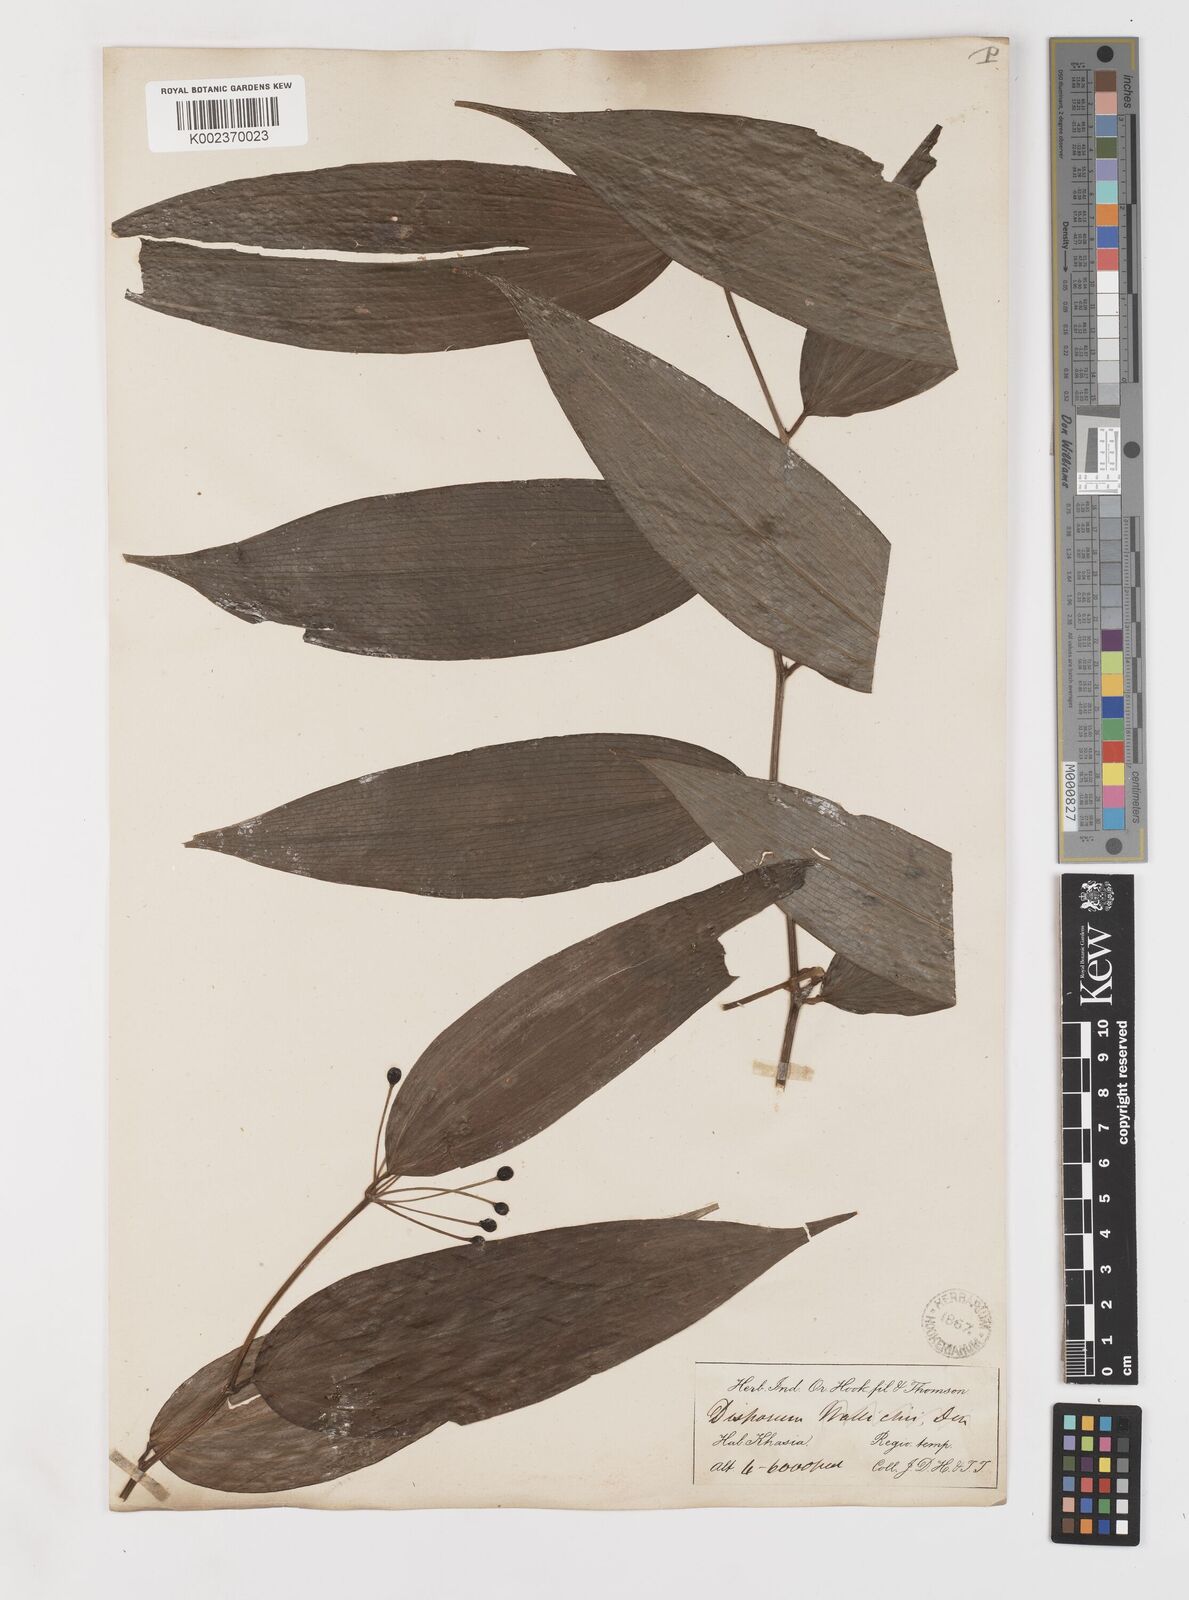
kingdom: Plantae
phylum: Tracheophyta
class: Liliopsida
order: Liliales
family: Colchicaceae
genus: Disporum
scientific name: Disporum cantoniense
